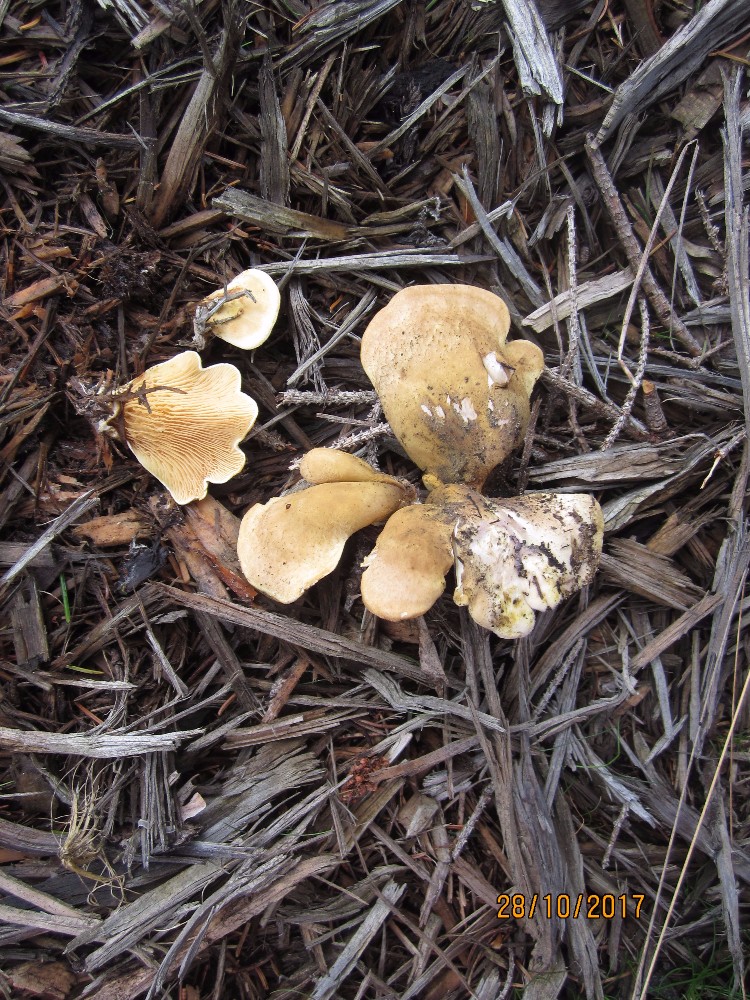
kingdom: Fungi
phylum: Basidiomycota
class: Agaricomycetes
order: Boletales
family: Tapinellaceae
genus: Tapinella
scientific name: Tapinella panuoides
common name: tømmer-viftesvamp
